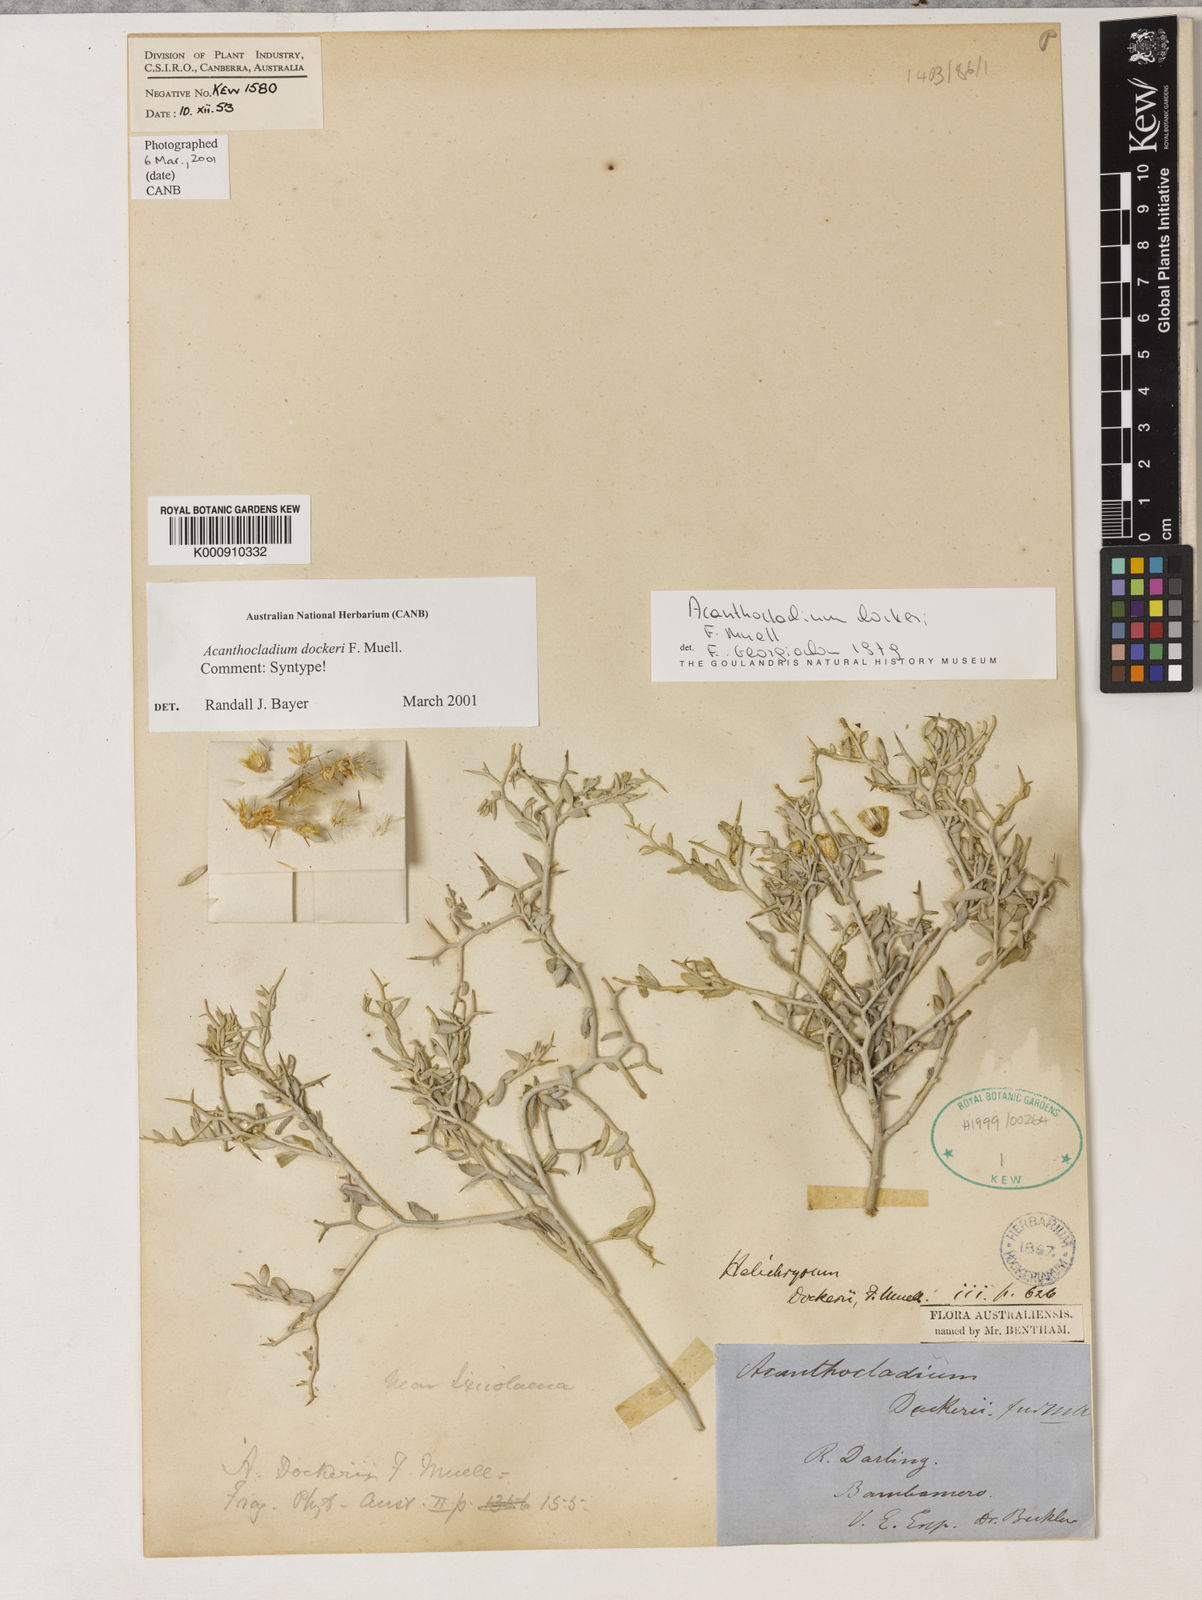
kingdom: Plantae
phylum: Tracheophyta
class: Magnoliopsida
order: Asterales
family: Asteraceae
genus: Acanthocladium
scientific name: Acanthocladium dockeri
